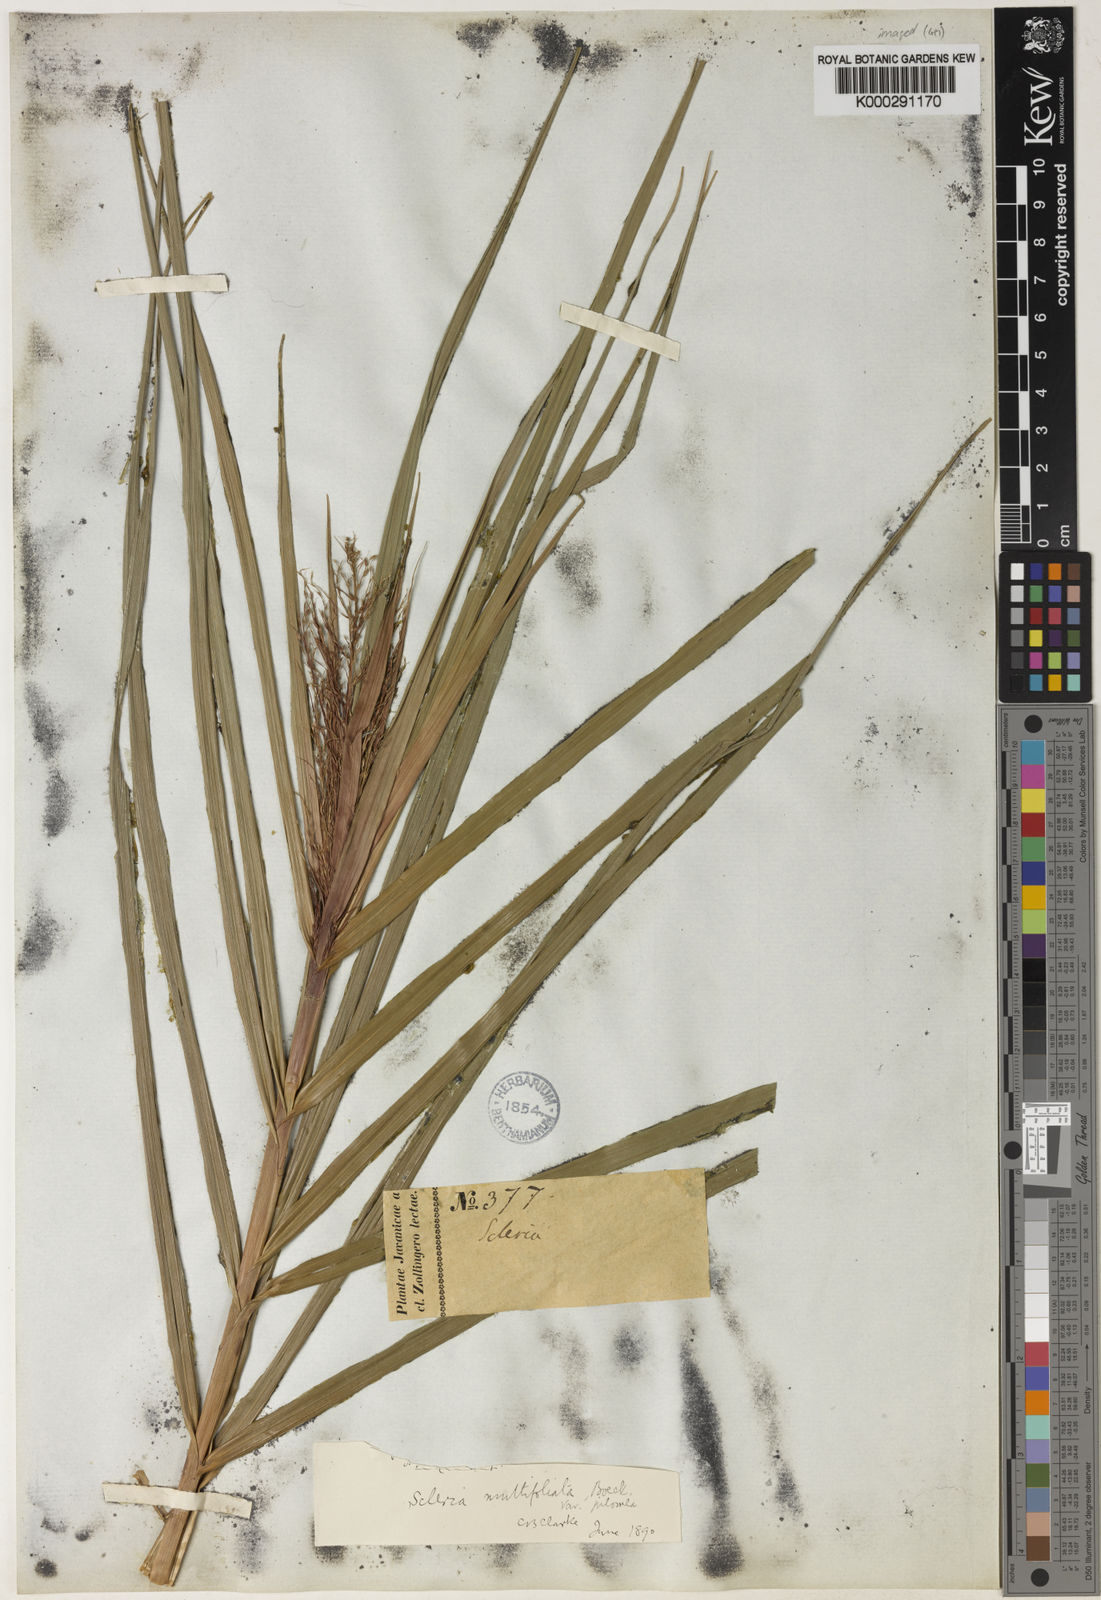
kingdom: Plantae
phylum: Tracheophyta
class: Liliopsida
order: Poales
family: Cyperaceae
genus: Scleria
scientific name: Scleria purpurascens
